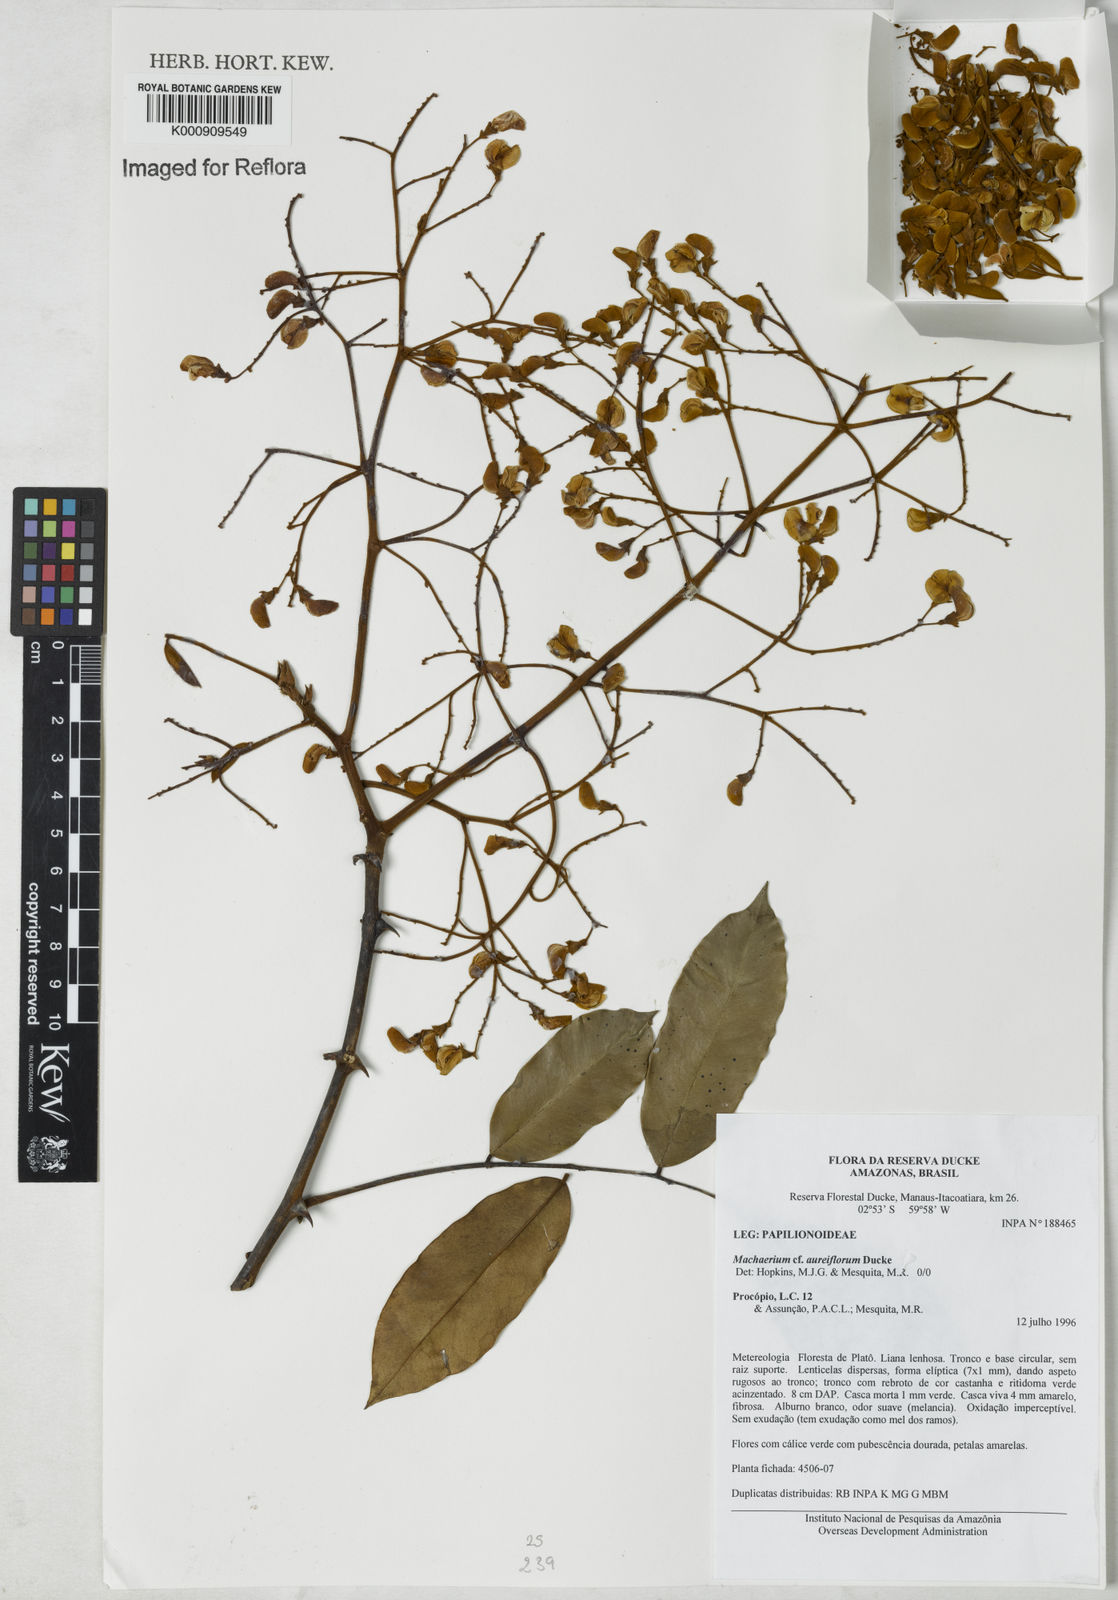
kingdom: Plantae
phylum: Tracheophyta
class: Magnoliopsida
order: Fabales
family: Fabaceae
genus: Machaerium
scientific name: Machaerium aureiflorum
